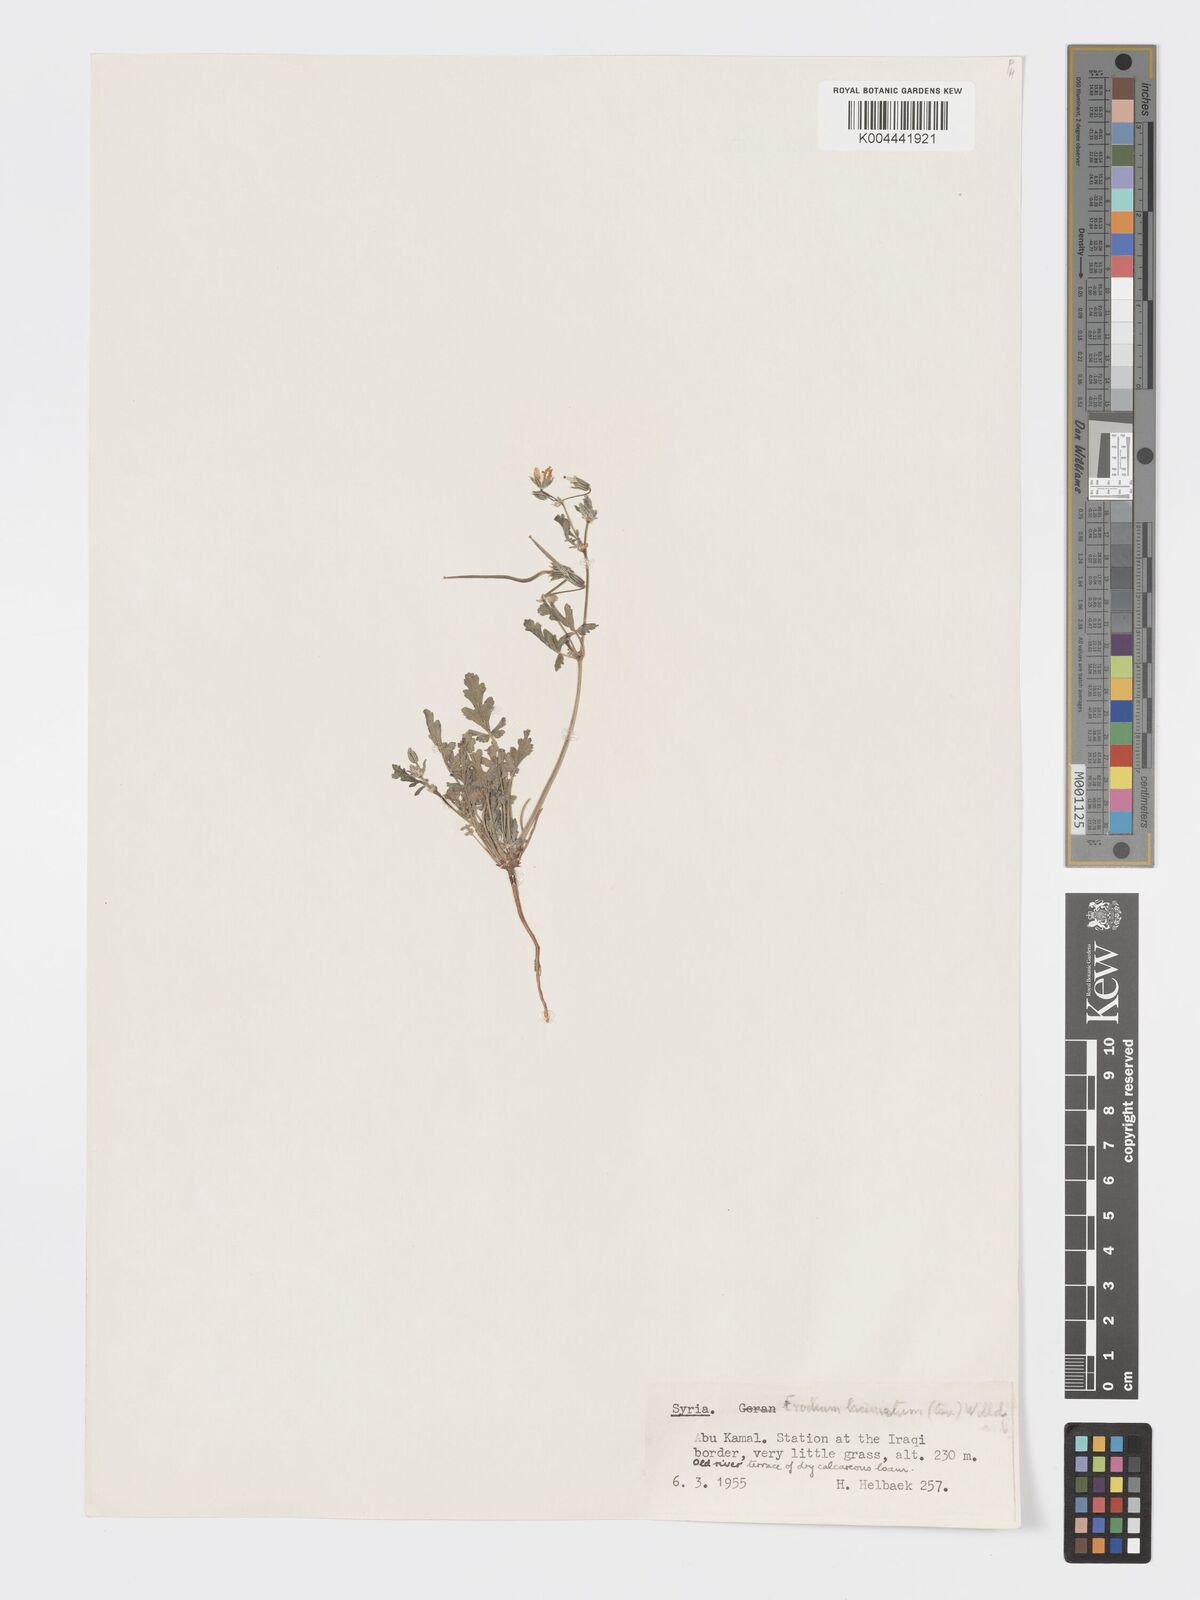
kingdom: Plantae
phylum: Tracheophyta
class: Magnoliopsida
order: Geraniales
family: Geraniaceae
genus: Erodium
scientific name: Erodium laciniatum
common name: Cutleaf stork's bill
